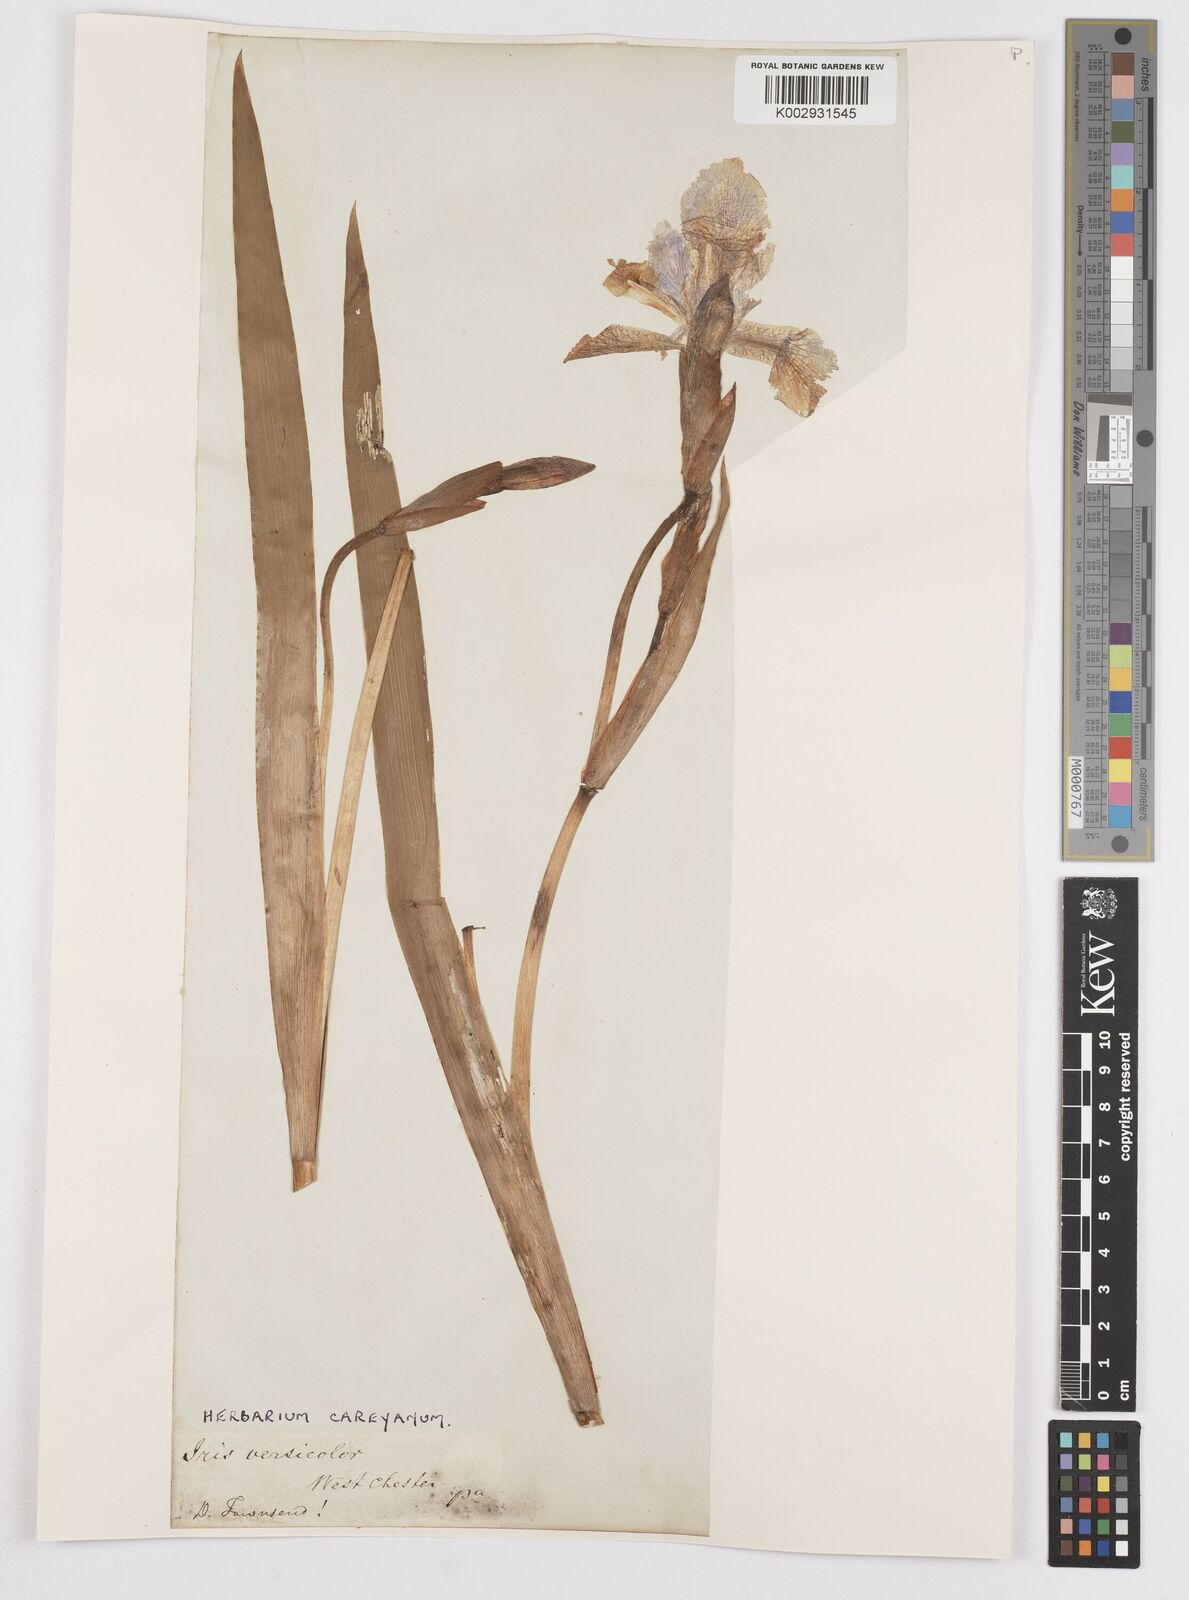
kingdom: Plantae
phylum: Tracheophyta
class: Liliopsida
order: Asparagales
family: Iridaceae
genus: Iris
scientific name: Iris versicolor
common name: Purple iris
